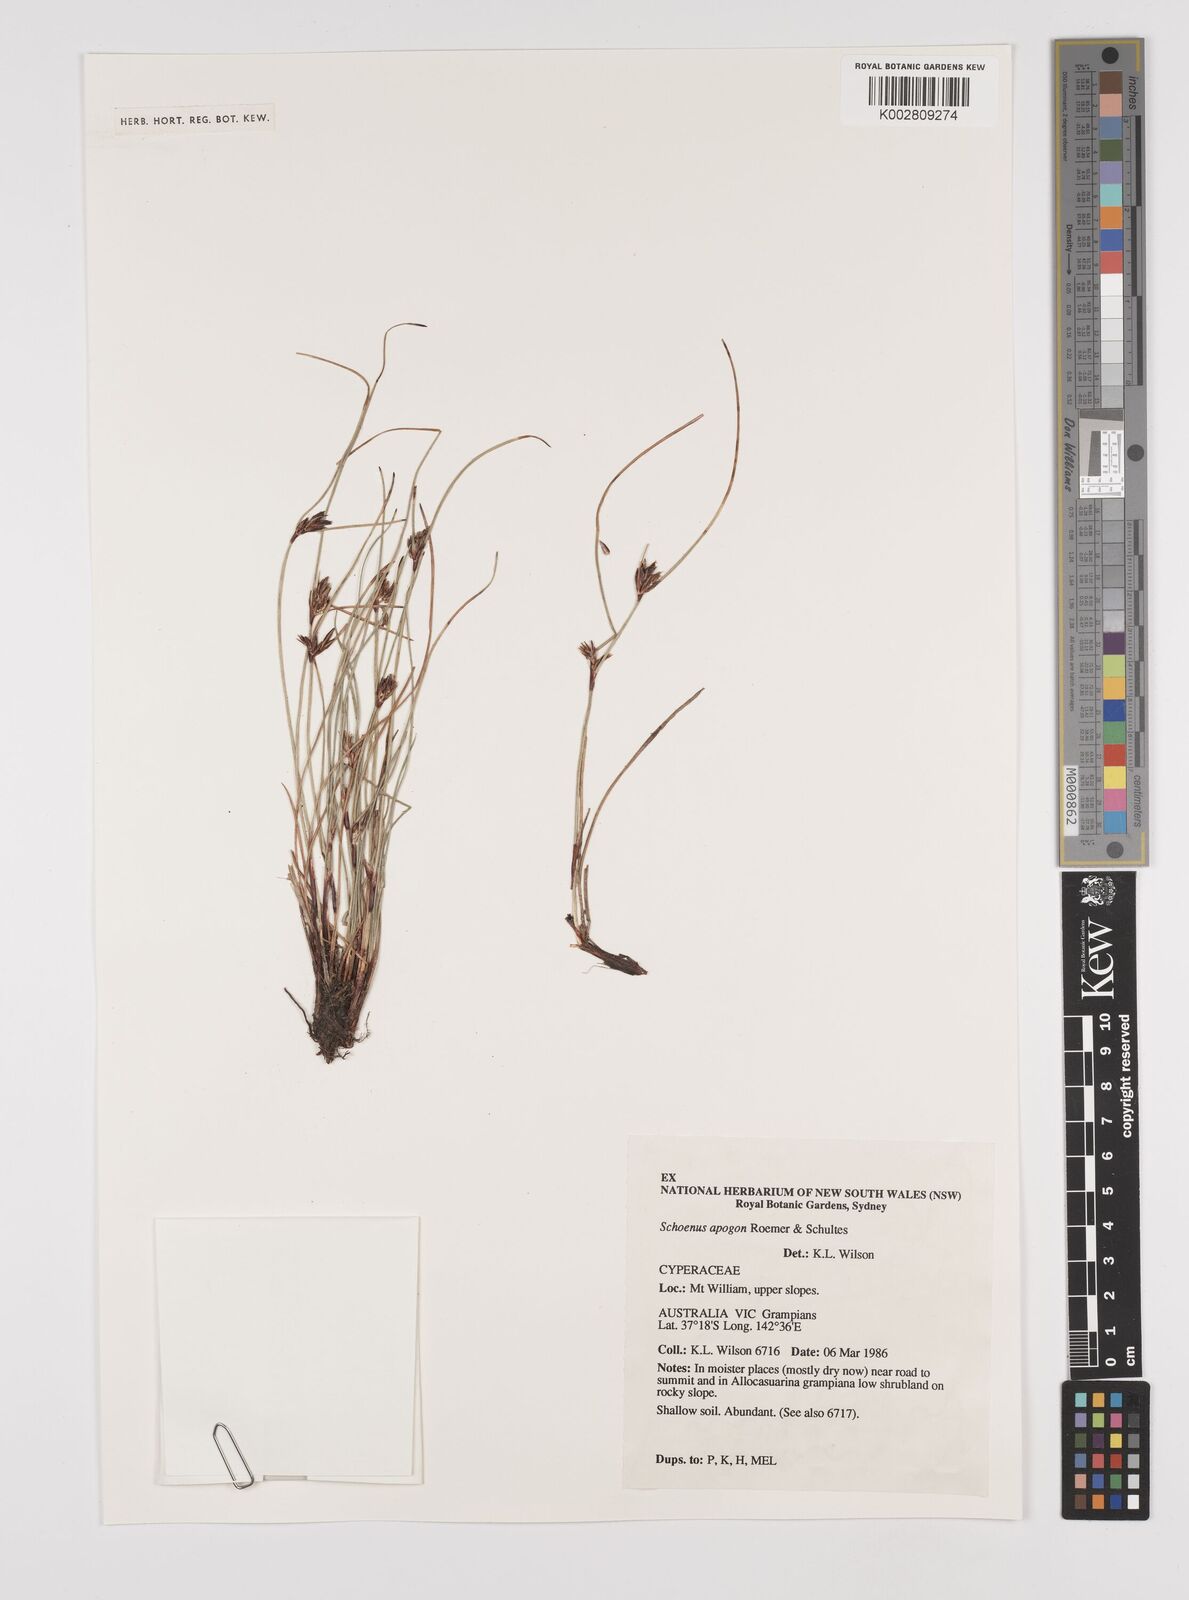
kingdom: Plantae
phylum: Tracheophyta
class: Liliopsida
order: Poales
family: Cyperaceae
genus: Schoenus
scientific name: Schoenus apogon
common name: Smooth bogrush
